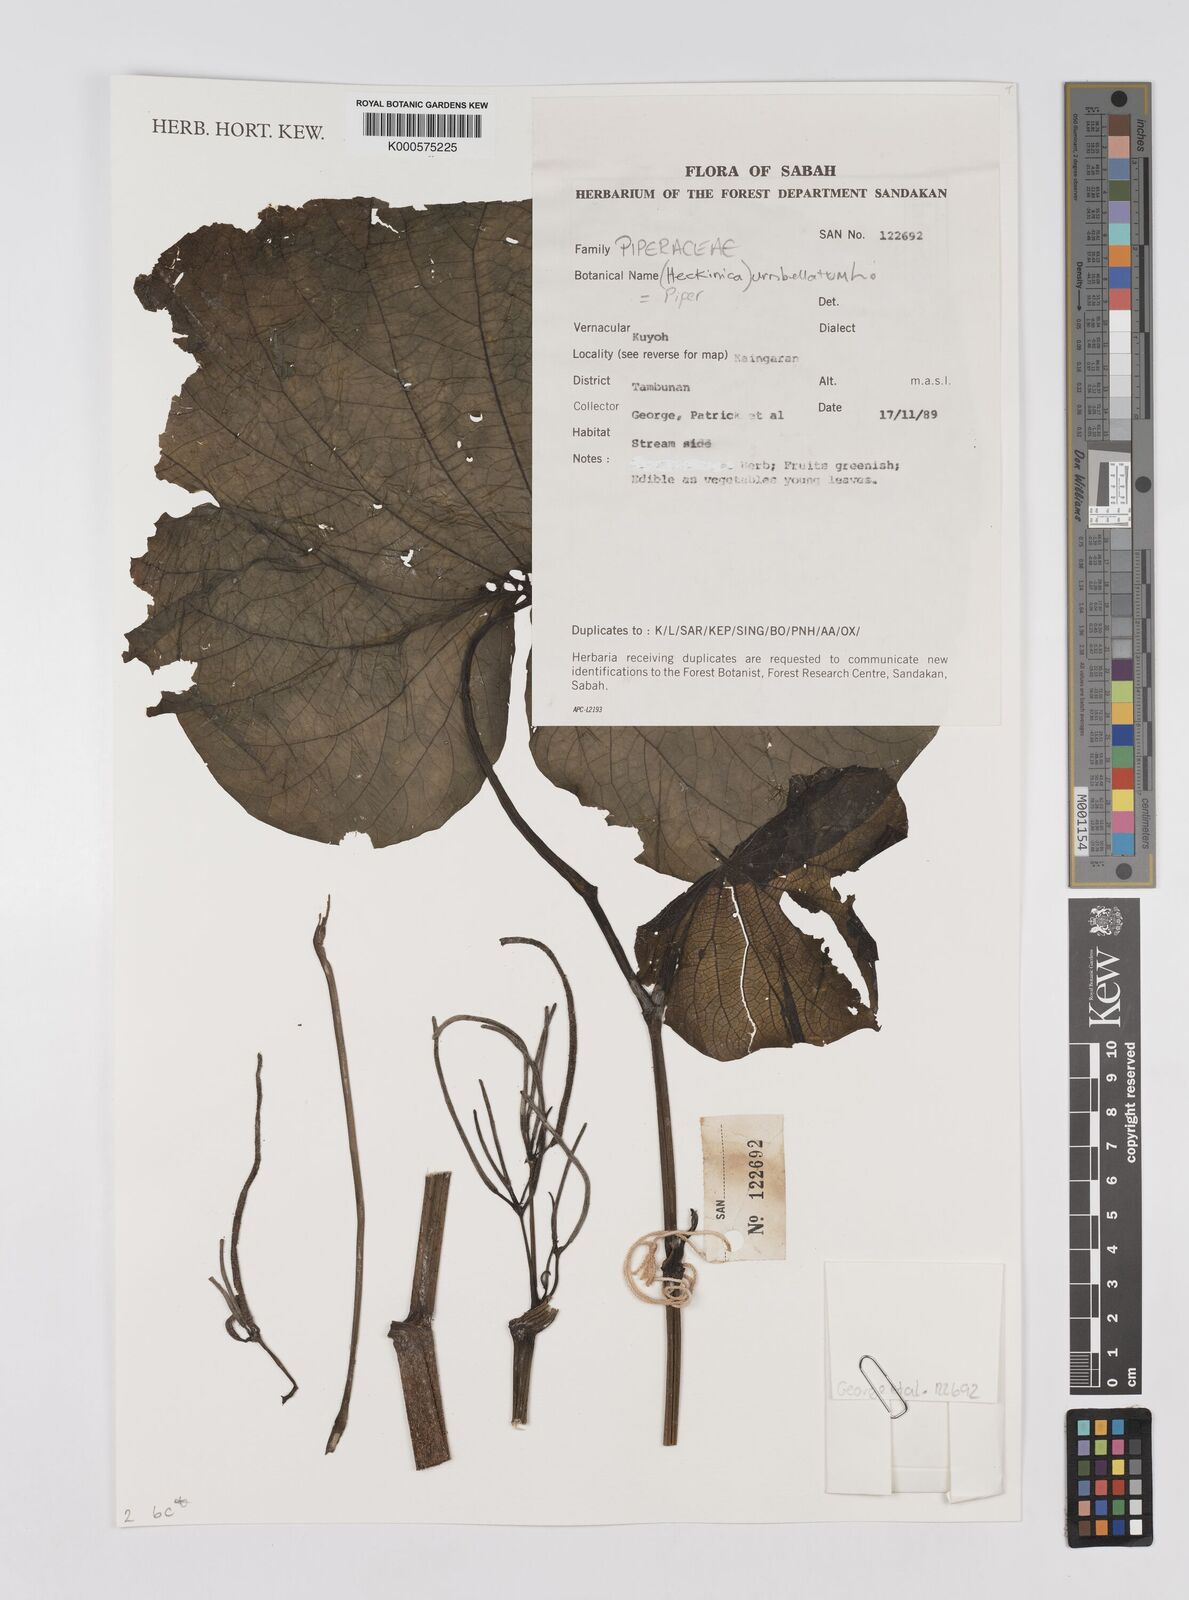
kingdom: Plantae
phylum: Tracheophyta
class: Magnoliopsida
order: Piperales
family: Piperaceae
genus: Piper
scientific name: Piper umbellatum
